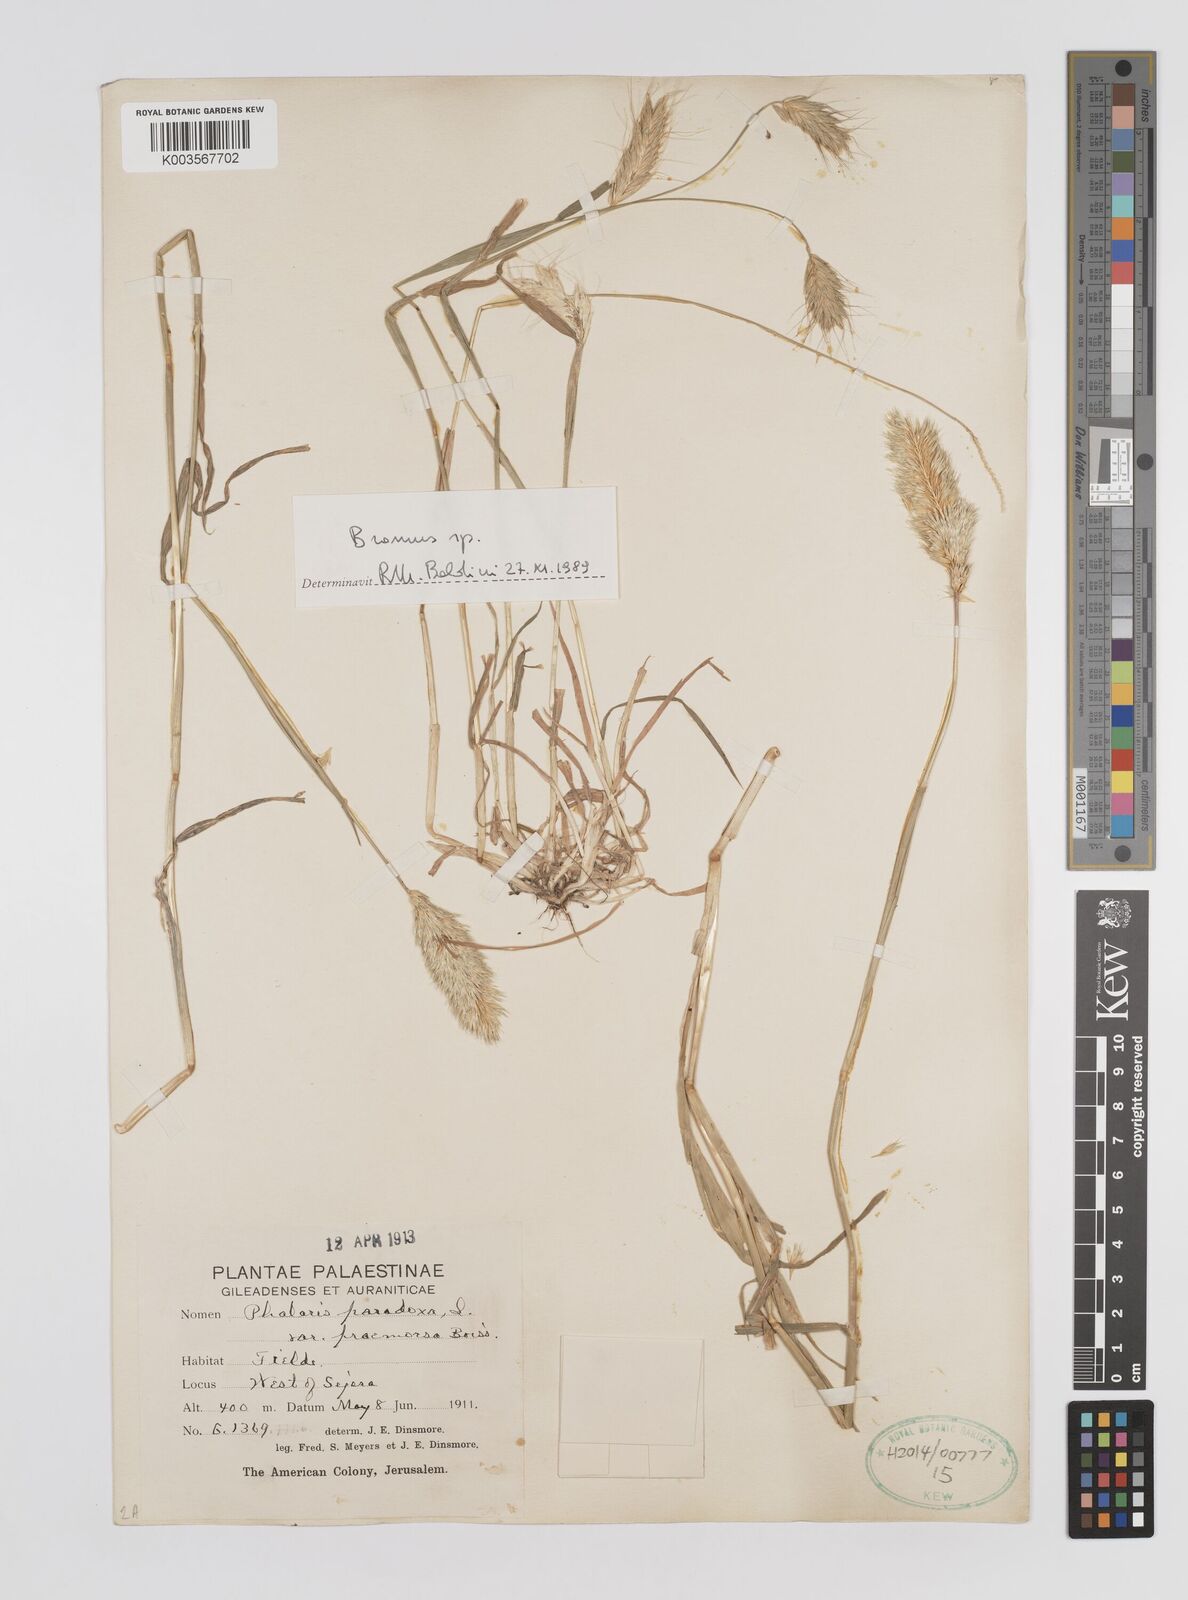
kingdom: Plantae
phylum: Tracheophyta
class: Liliopsida
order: Poales
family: Poaceae
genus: Bromus
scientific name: Bromus
